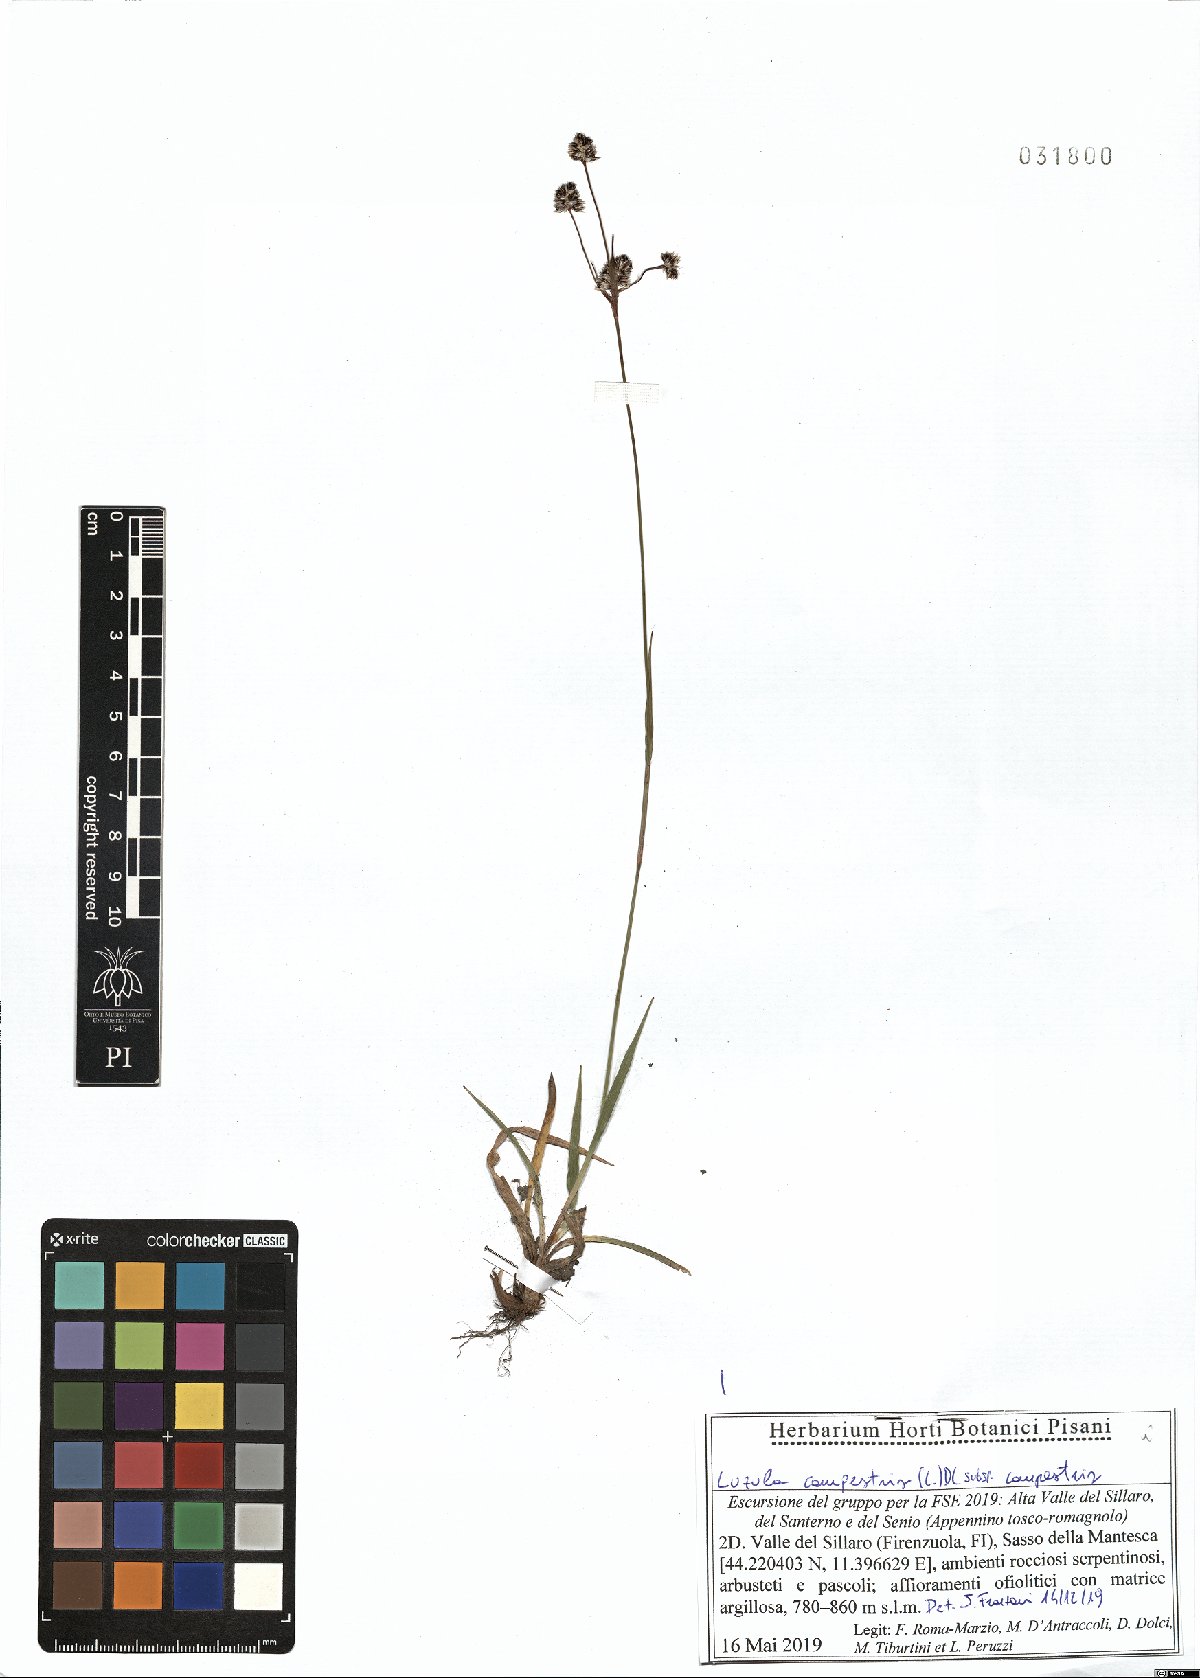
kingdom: Plantae
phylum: Tracheophyta
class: Liliopsida
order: Poales
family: Juncaceae
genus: Luzula
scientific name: Luzula campestris
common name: Field wood-rush
